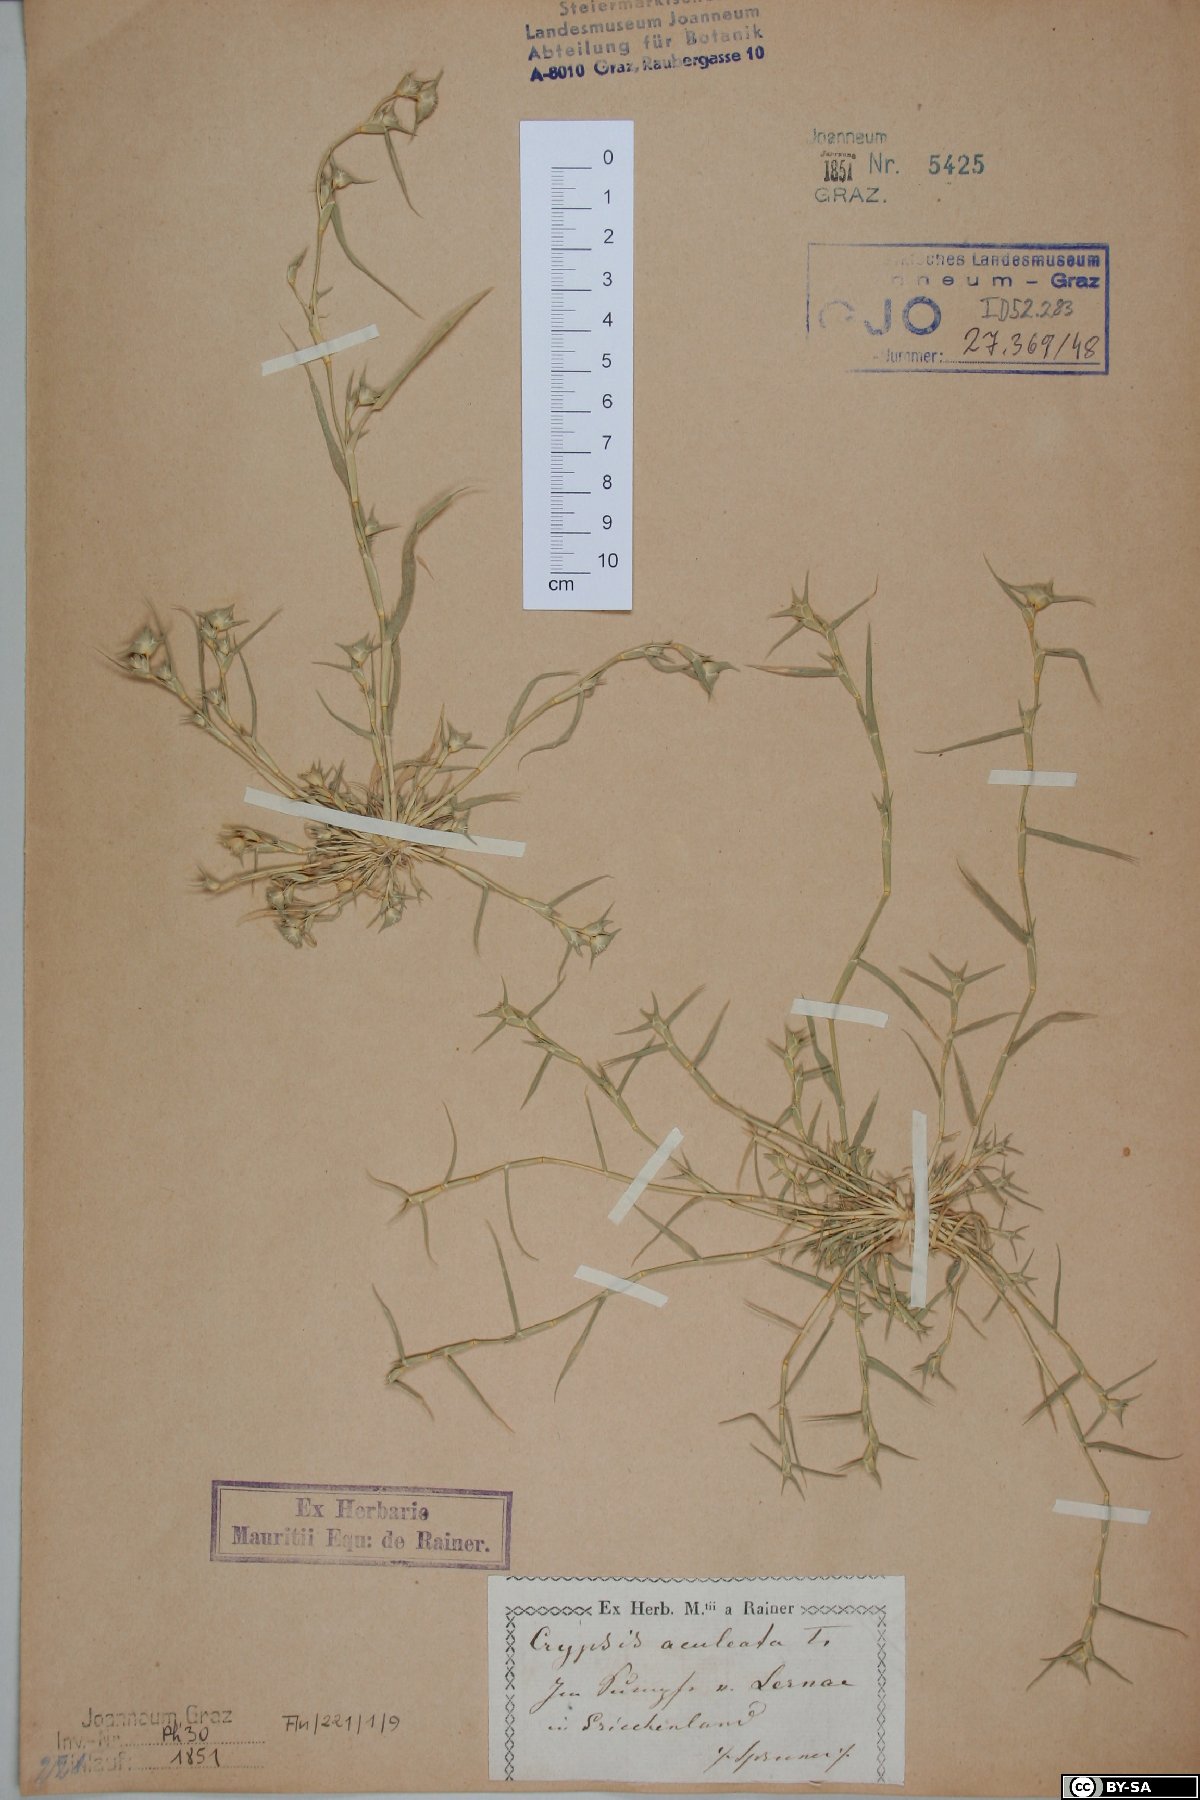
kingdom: Plantae
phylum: Tracheophyta
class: Liliopsida
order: Poales
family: Poaceae
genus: Sporobolus
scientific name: Sporobolus aculeatus
